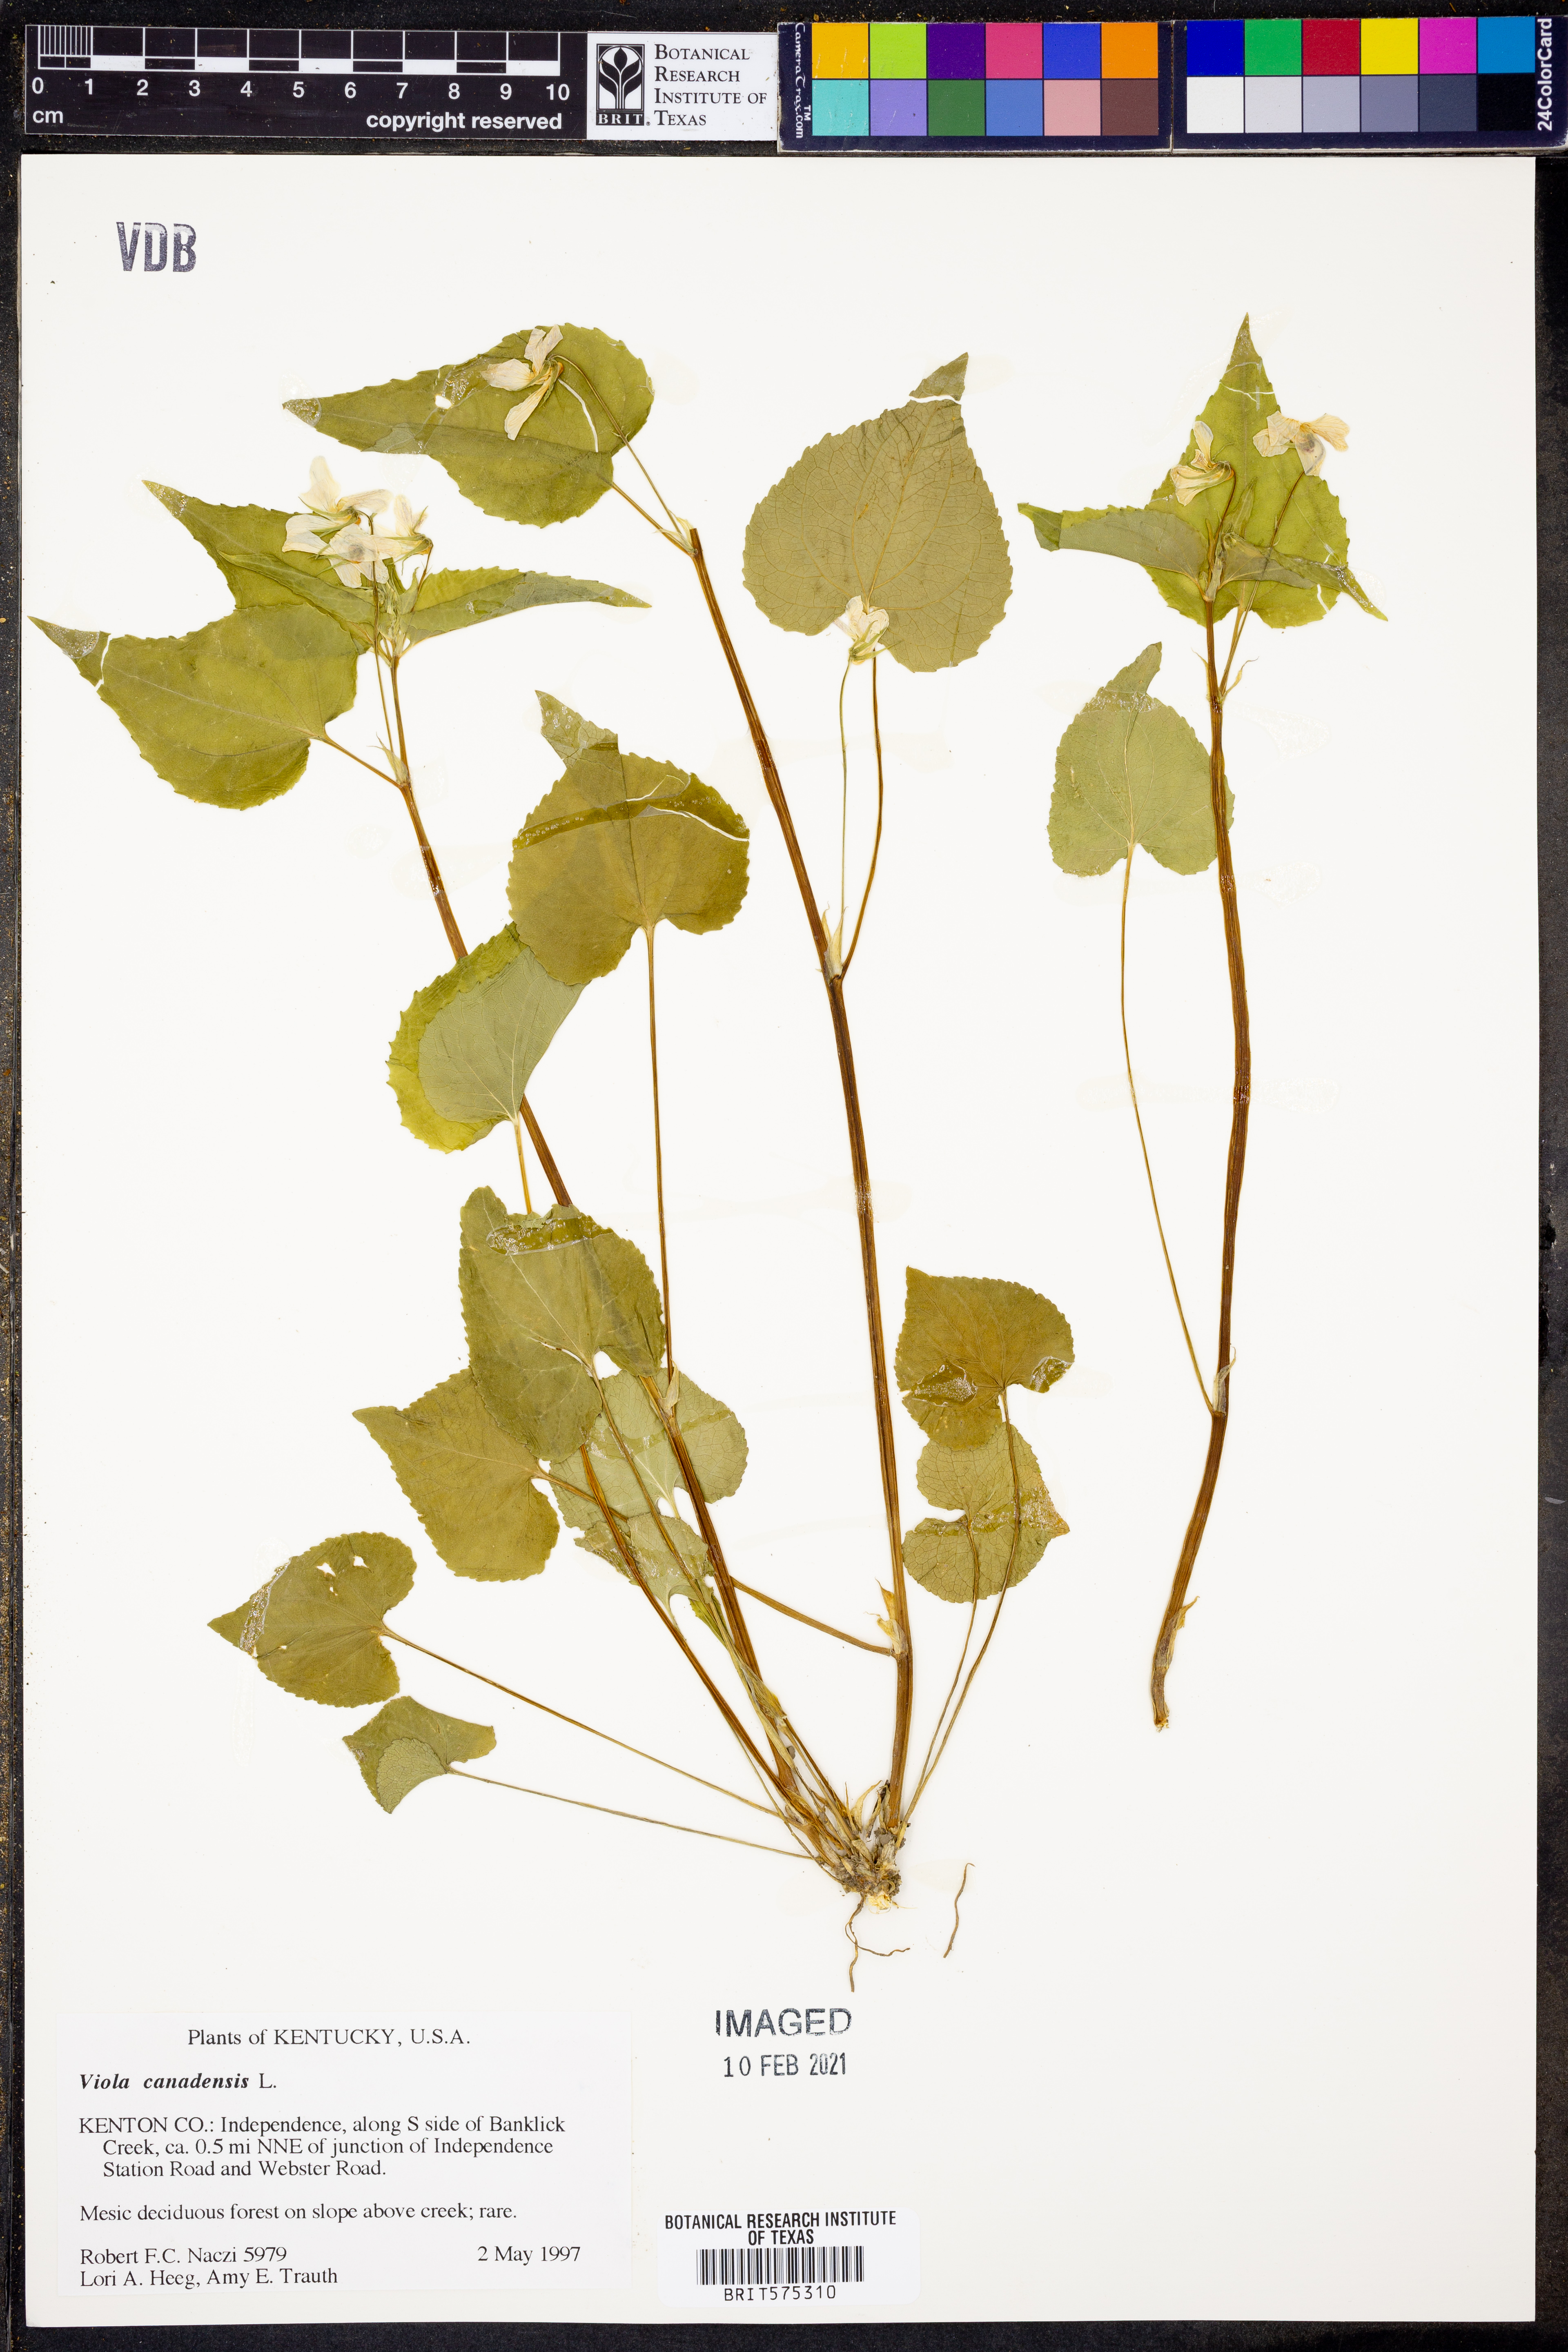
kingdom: Plantae
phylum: Tracheophyta
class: Magnoliopsida
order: Malpighiales
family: Violaceae
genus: Viola
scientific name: Viola canadensis
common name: Canada violet
